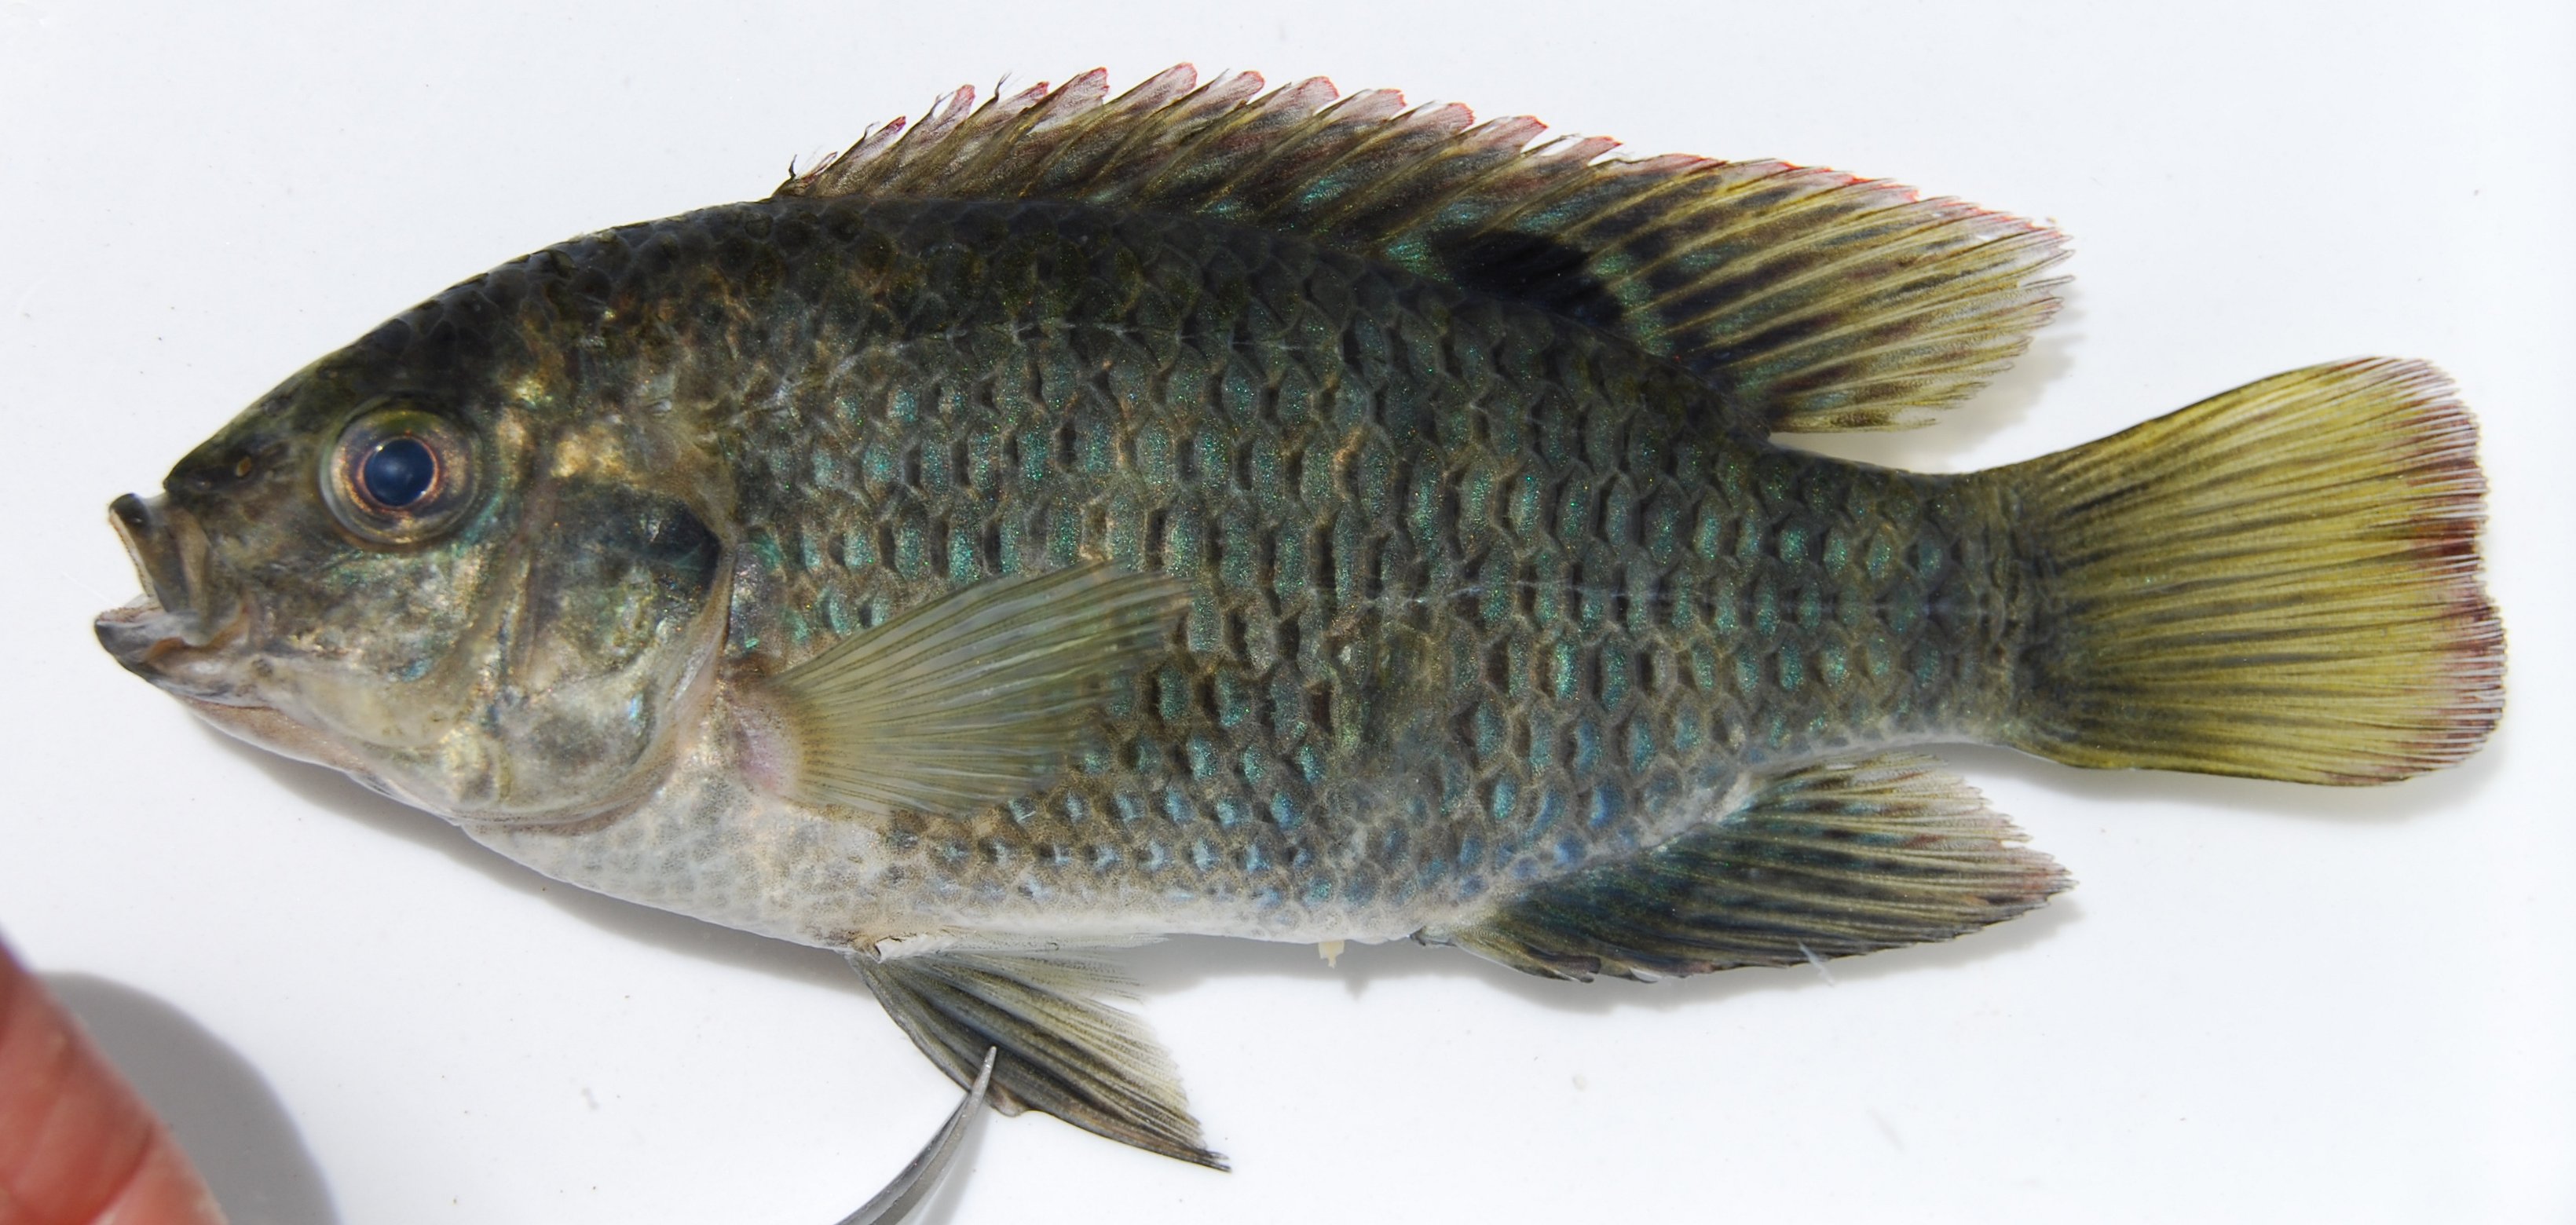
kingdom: Animalia
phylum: Chordata
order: Perciformes
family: Cichlidae
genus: Tilapia
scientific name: Tilapia sparrmanii
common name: Banded tilapia
